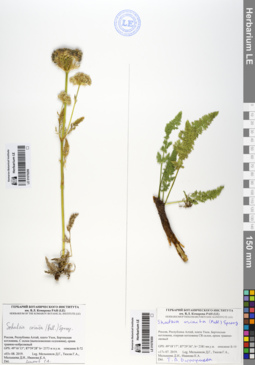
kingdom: Plantae
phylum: Tracheophyta
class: Magnoliopsida
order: Apiales
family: Apiaceae
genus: Schulzia
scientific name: Schulzia crinita
